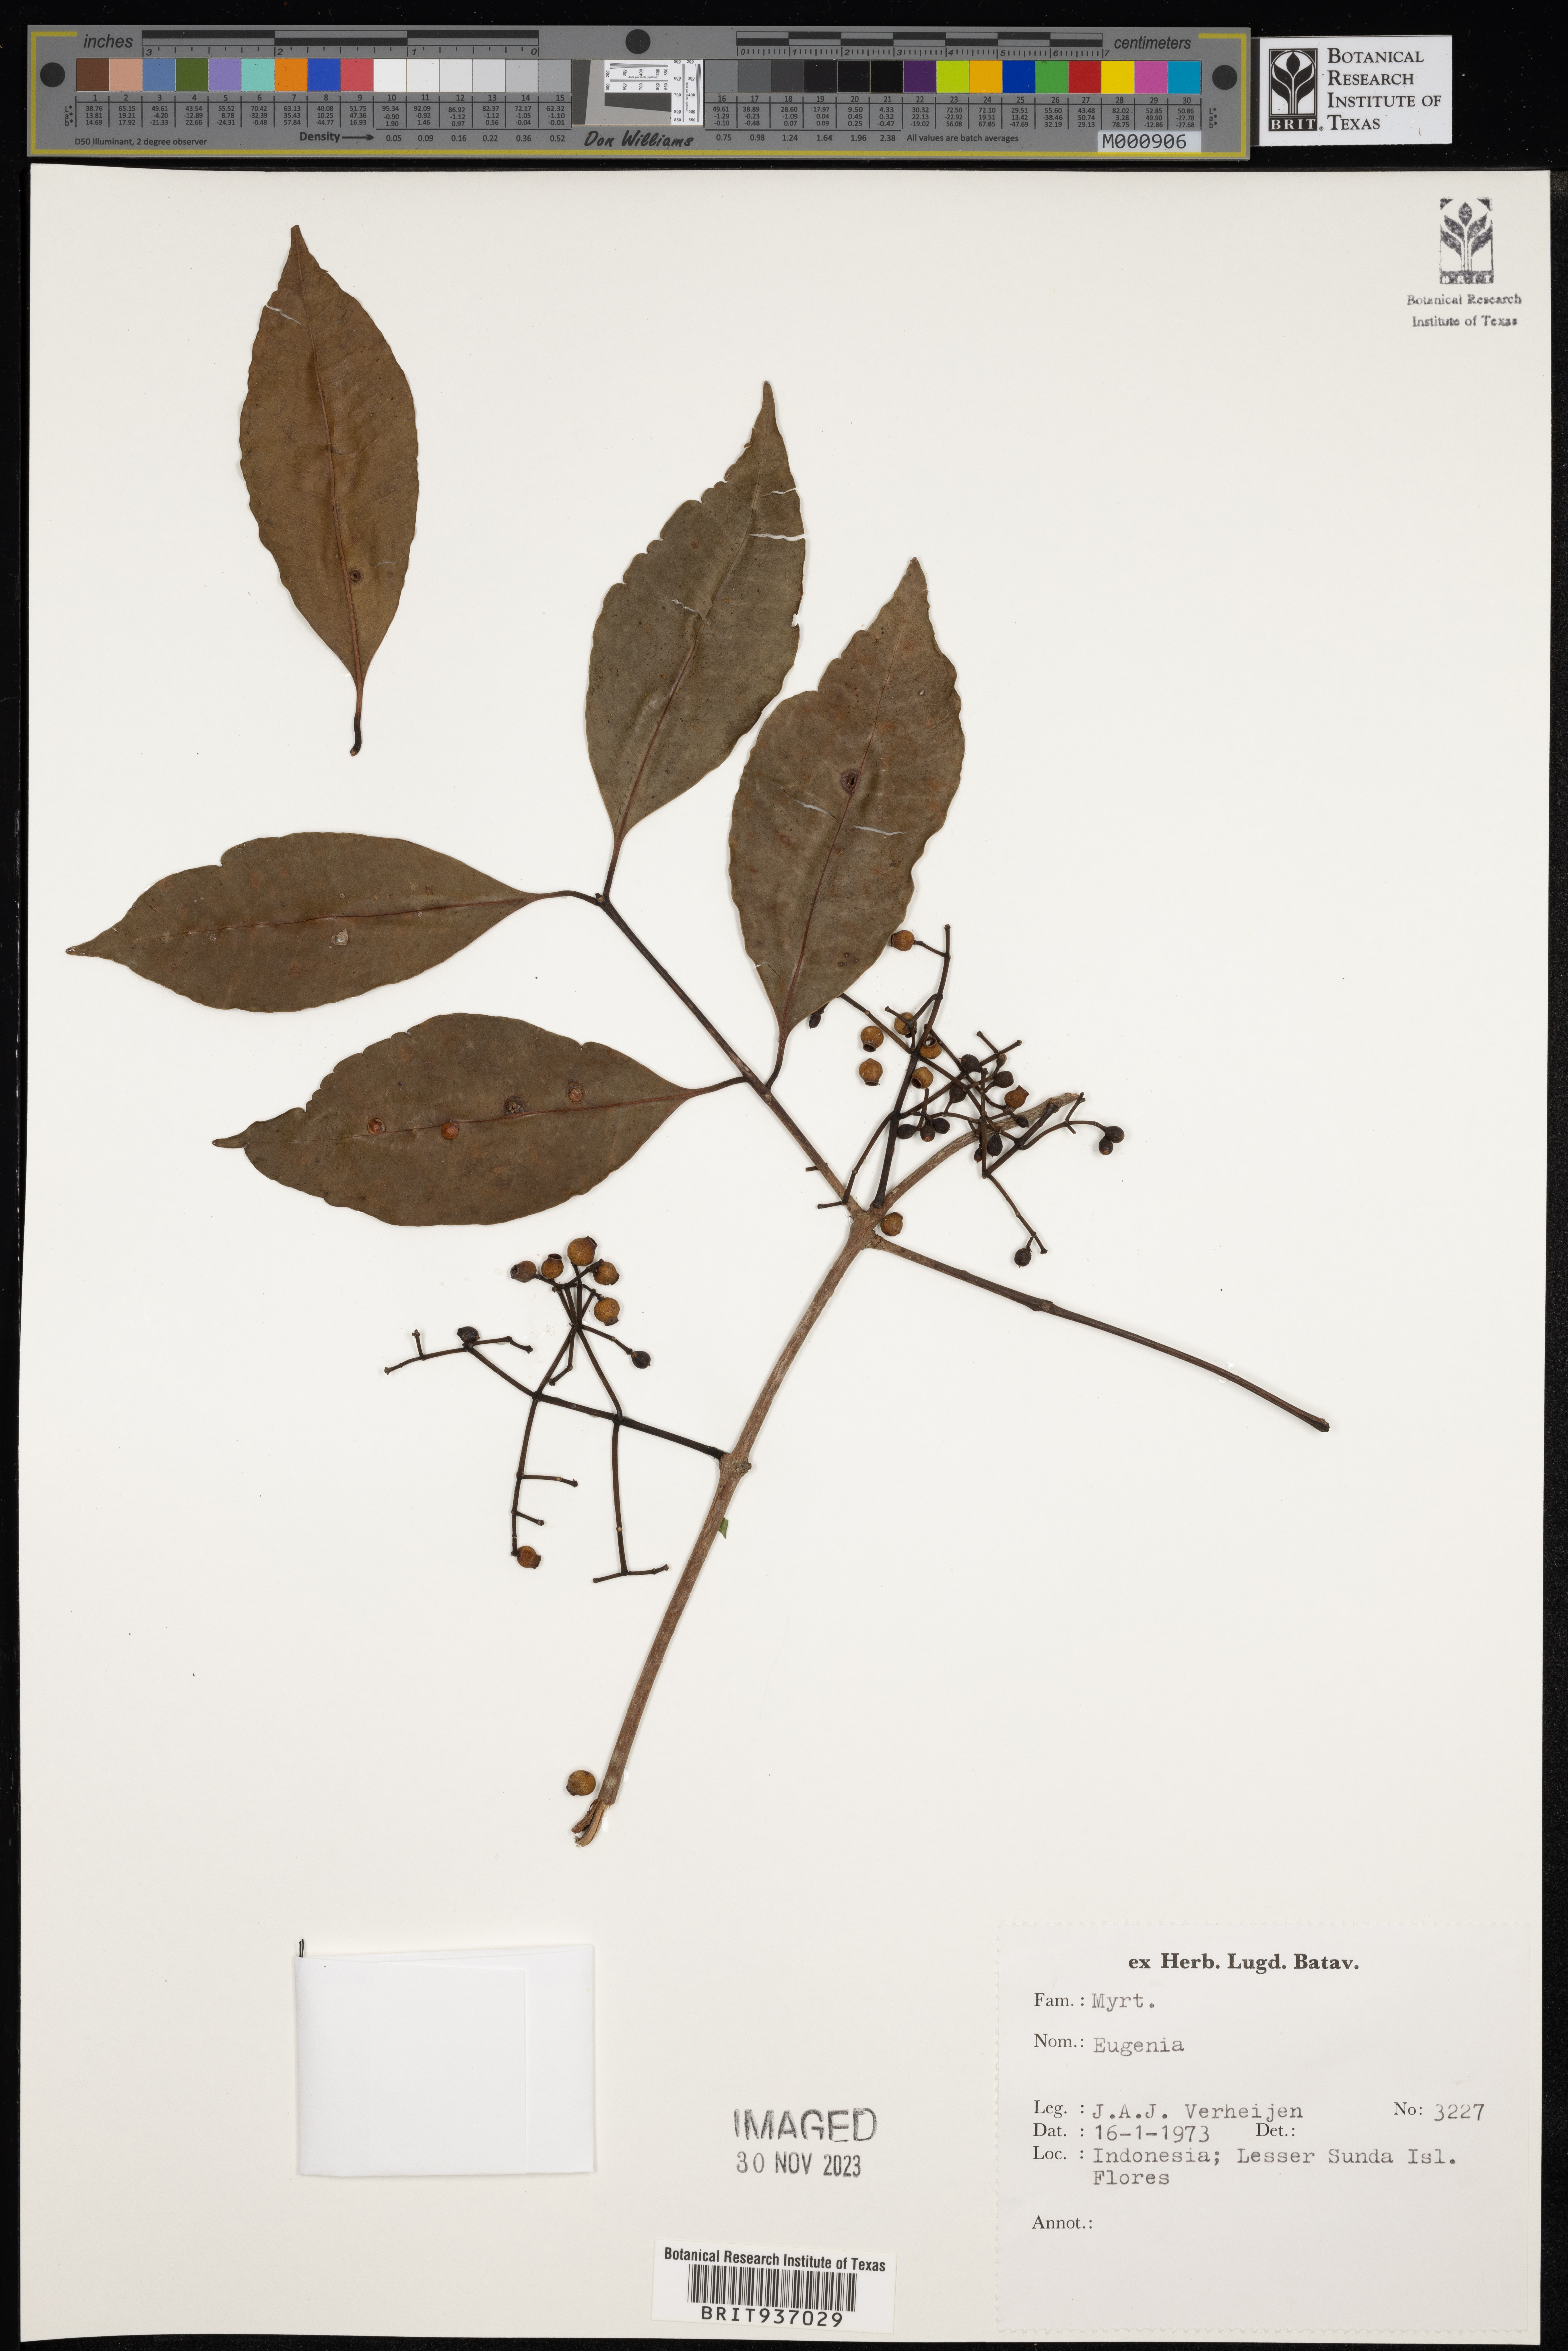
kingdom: Plantae
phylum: Tracheophyta
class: Magnoliopsida
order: Myrtales
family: Myrtaceae
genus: Eugenia
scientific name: Eugenia
